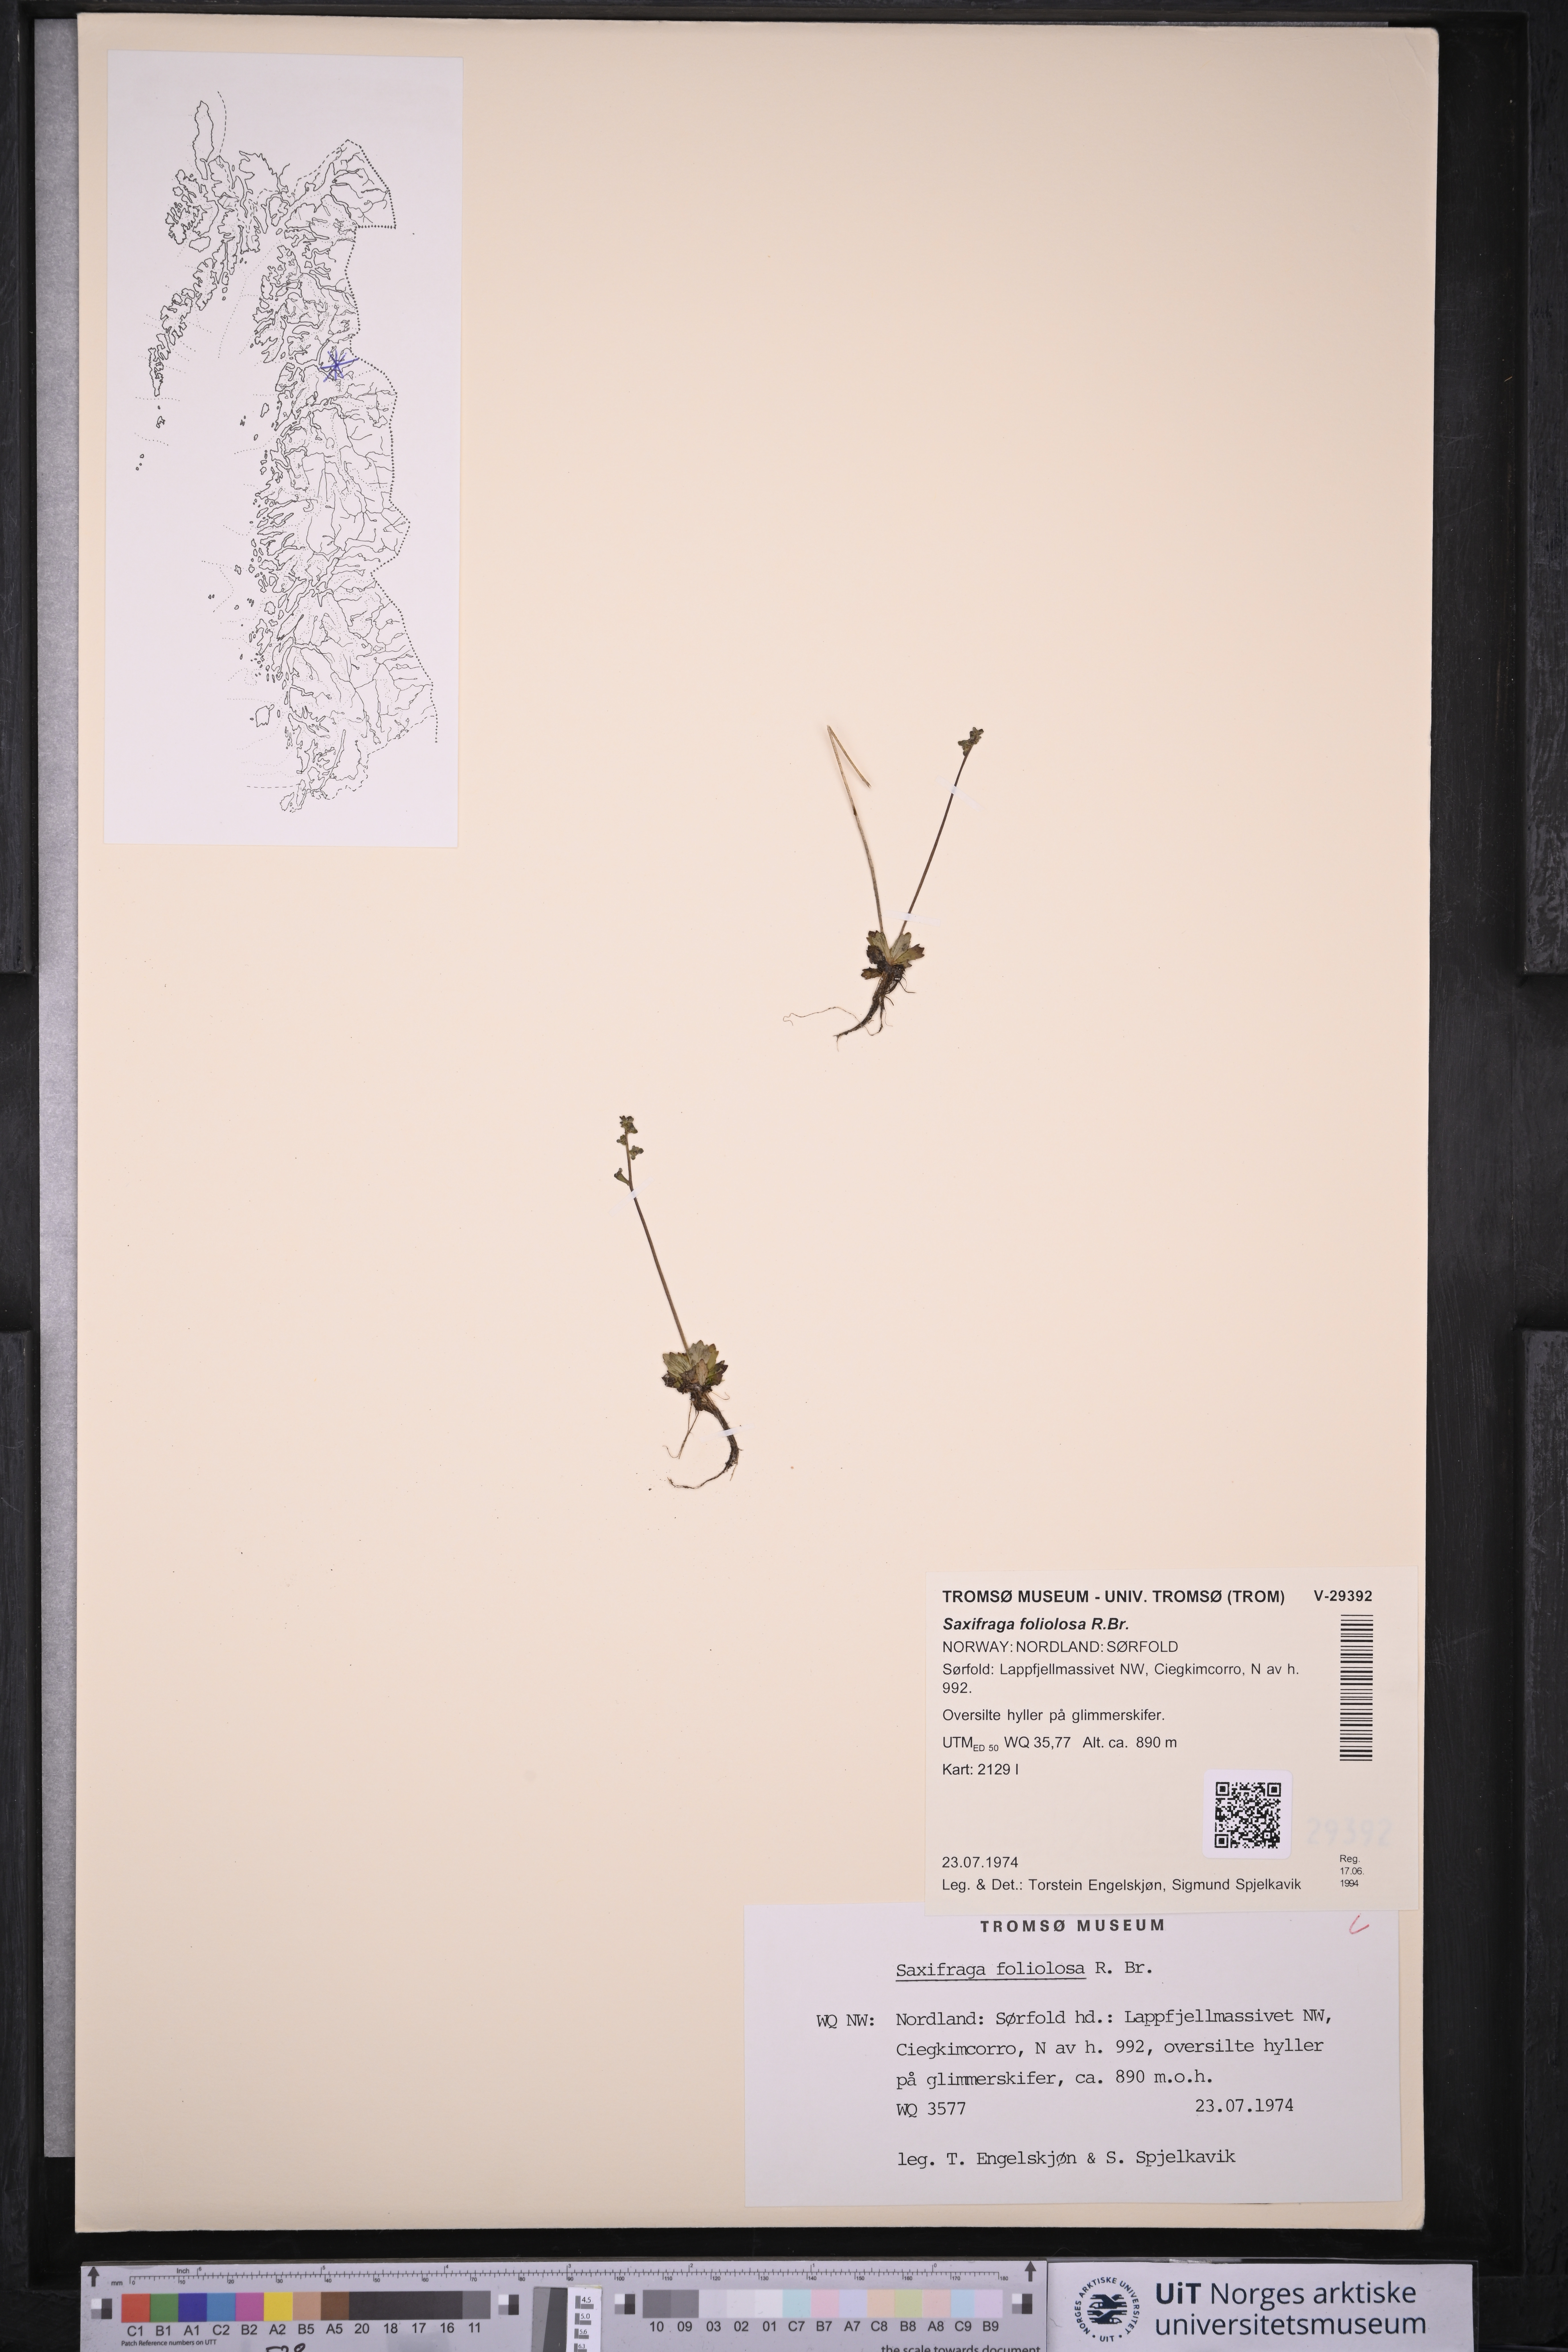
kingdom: Plantae
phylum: Tracheophyta
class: Magnoliopsida
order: Saxifragales
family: Saxifragaceae
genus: Micranthes
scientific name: Micranthes foliolosa
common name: Leafystem saxifrage
